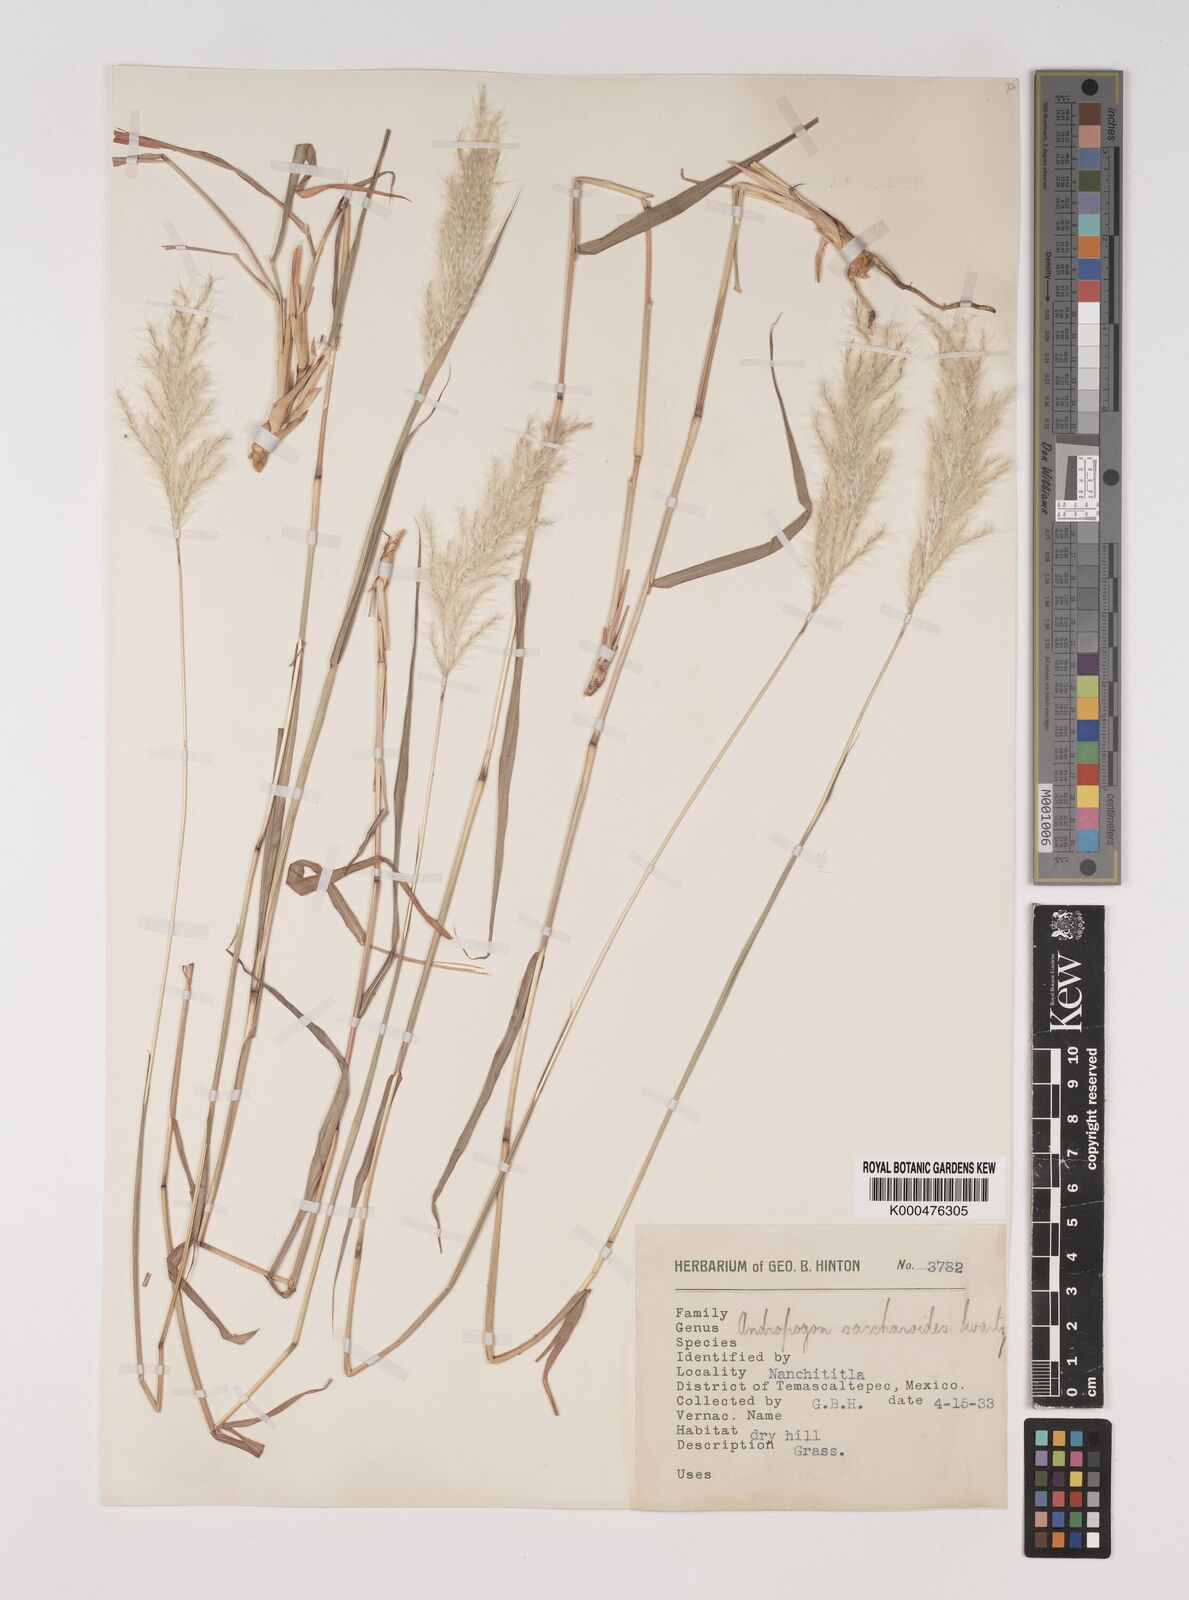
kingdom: Plantae
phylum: Tracheophyta
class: Liliopsida
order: Poales
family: Poaceae
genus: Bothriochloa
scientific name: Bothriochloa laguroides
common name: Silver bluestem
